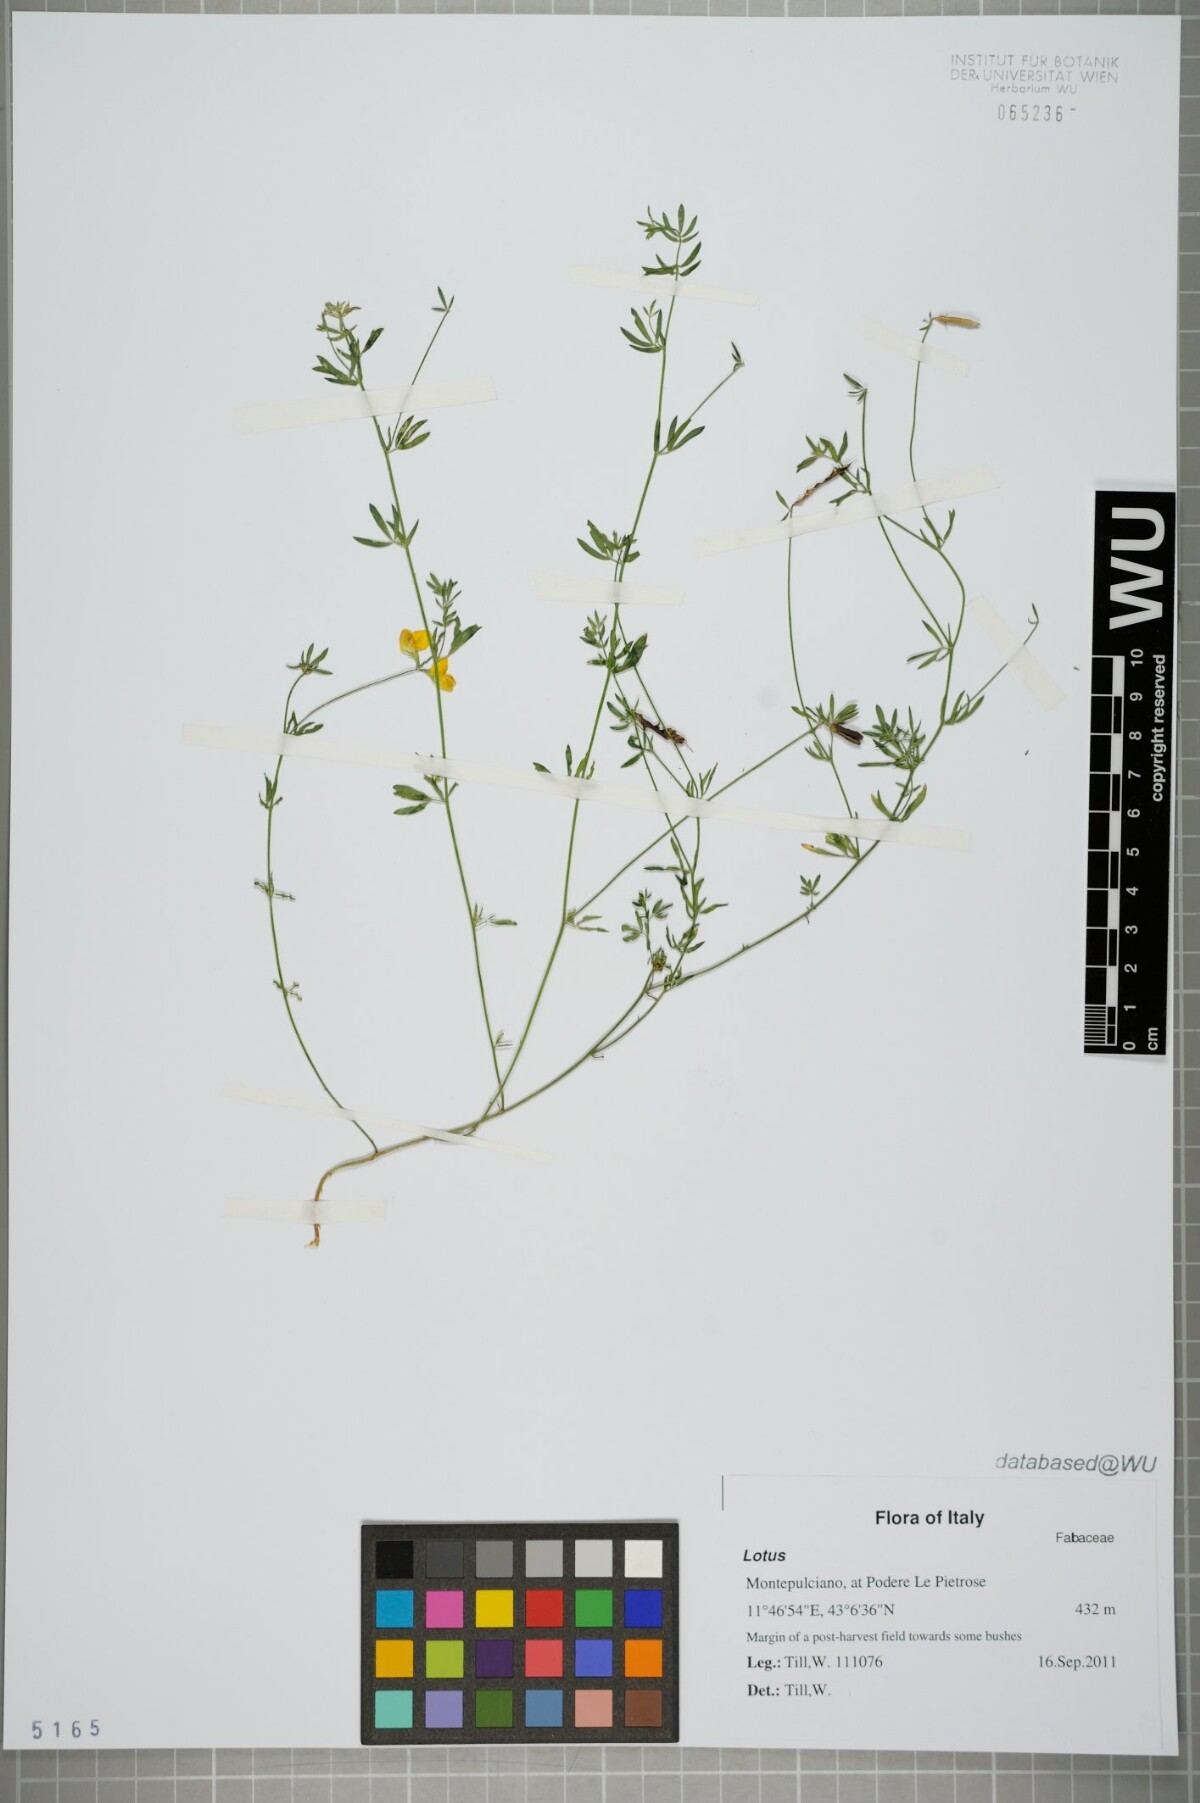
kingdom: Plantae
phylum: Tracheophyta
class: Magnoliopsida
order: Fabales
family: Fabaceae
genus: Lotus
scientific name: Lotus
